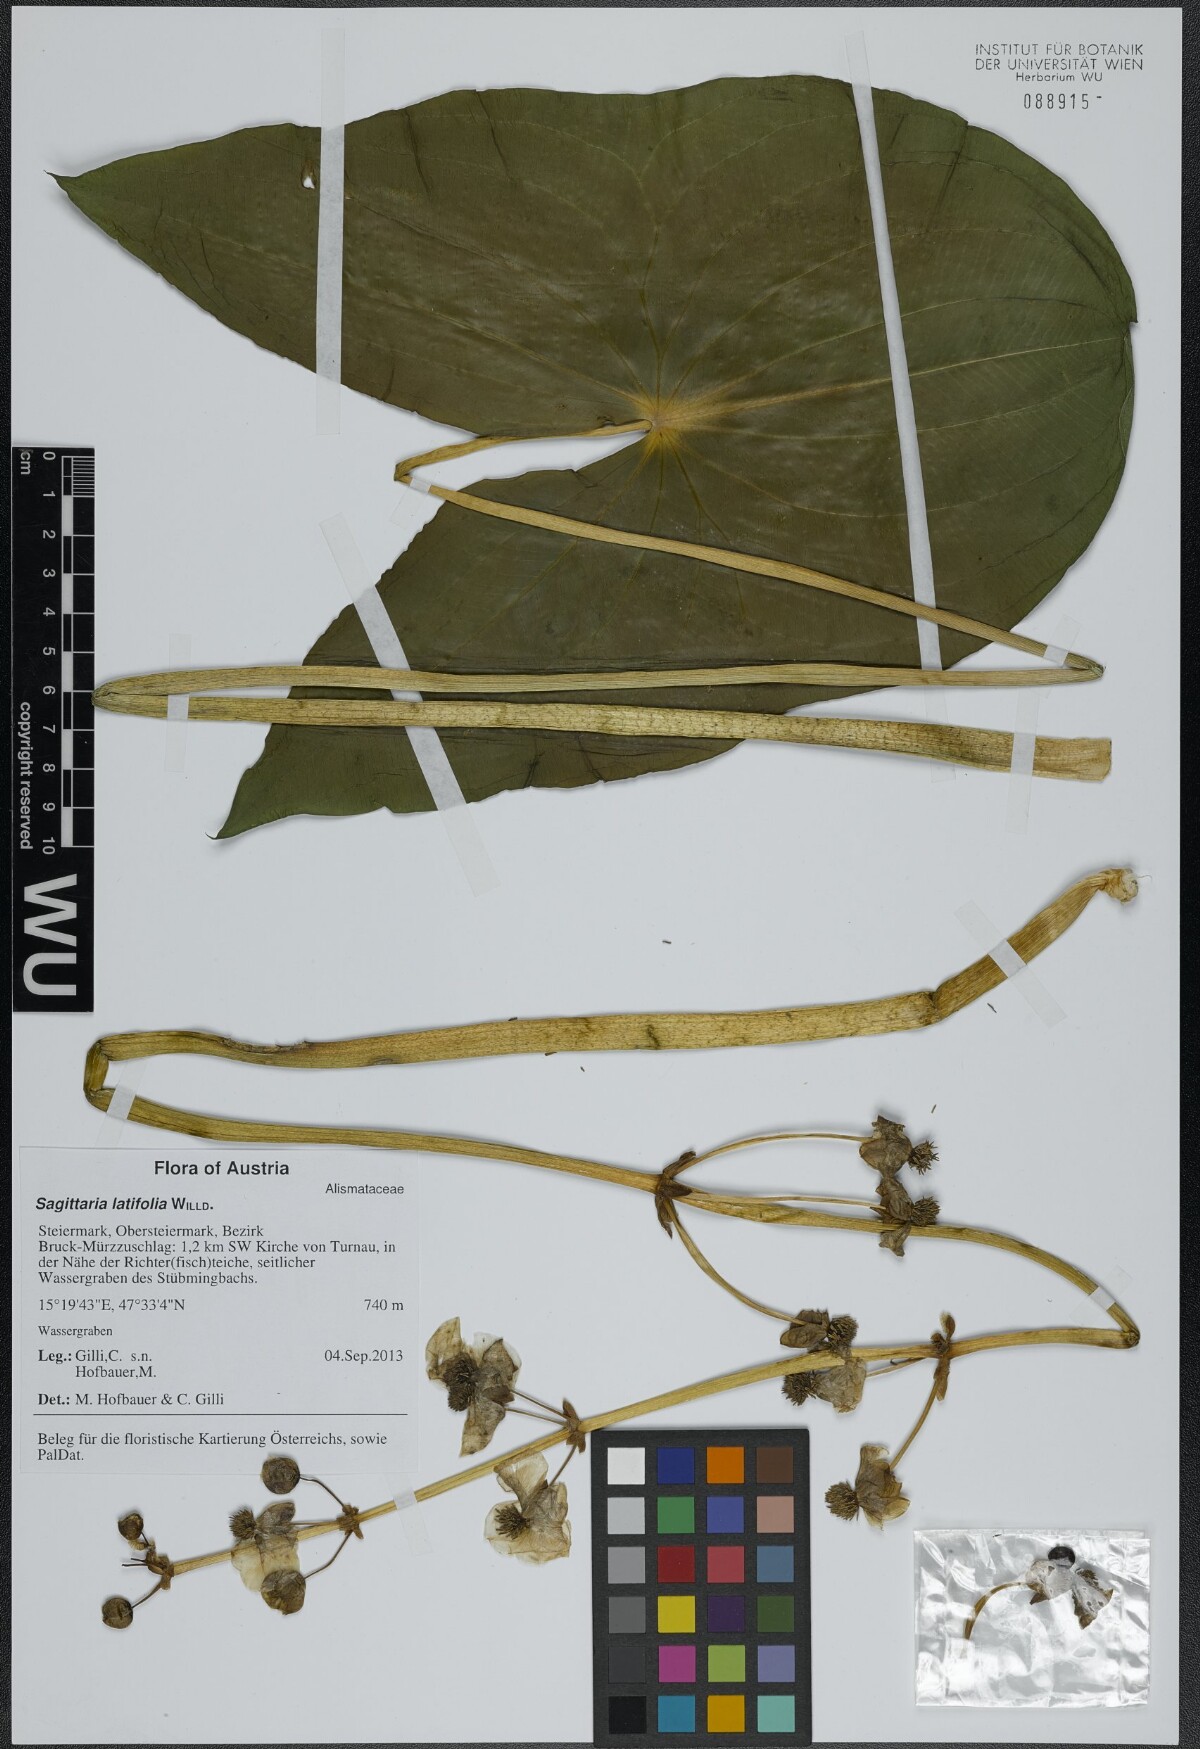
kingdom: Plantae
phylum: Tracheophyta
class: Liliopsida
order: Alismatales
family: Alismataceae
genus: Sagittaria
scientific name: Sagittaria latifolia
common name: Duck-potato
